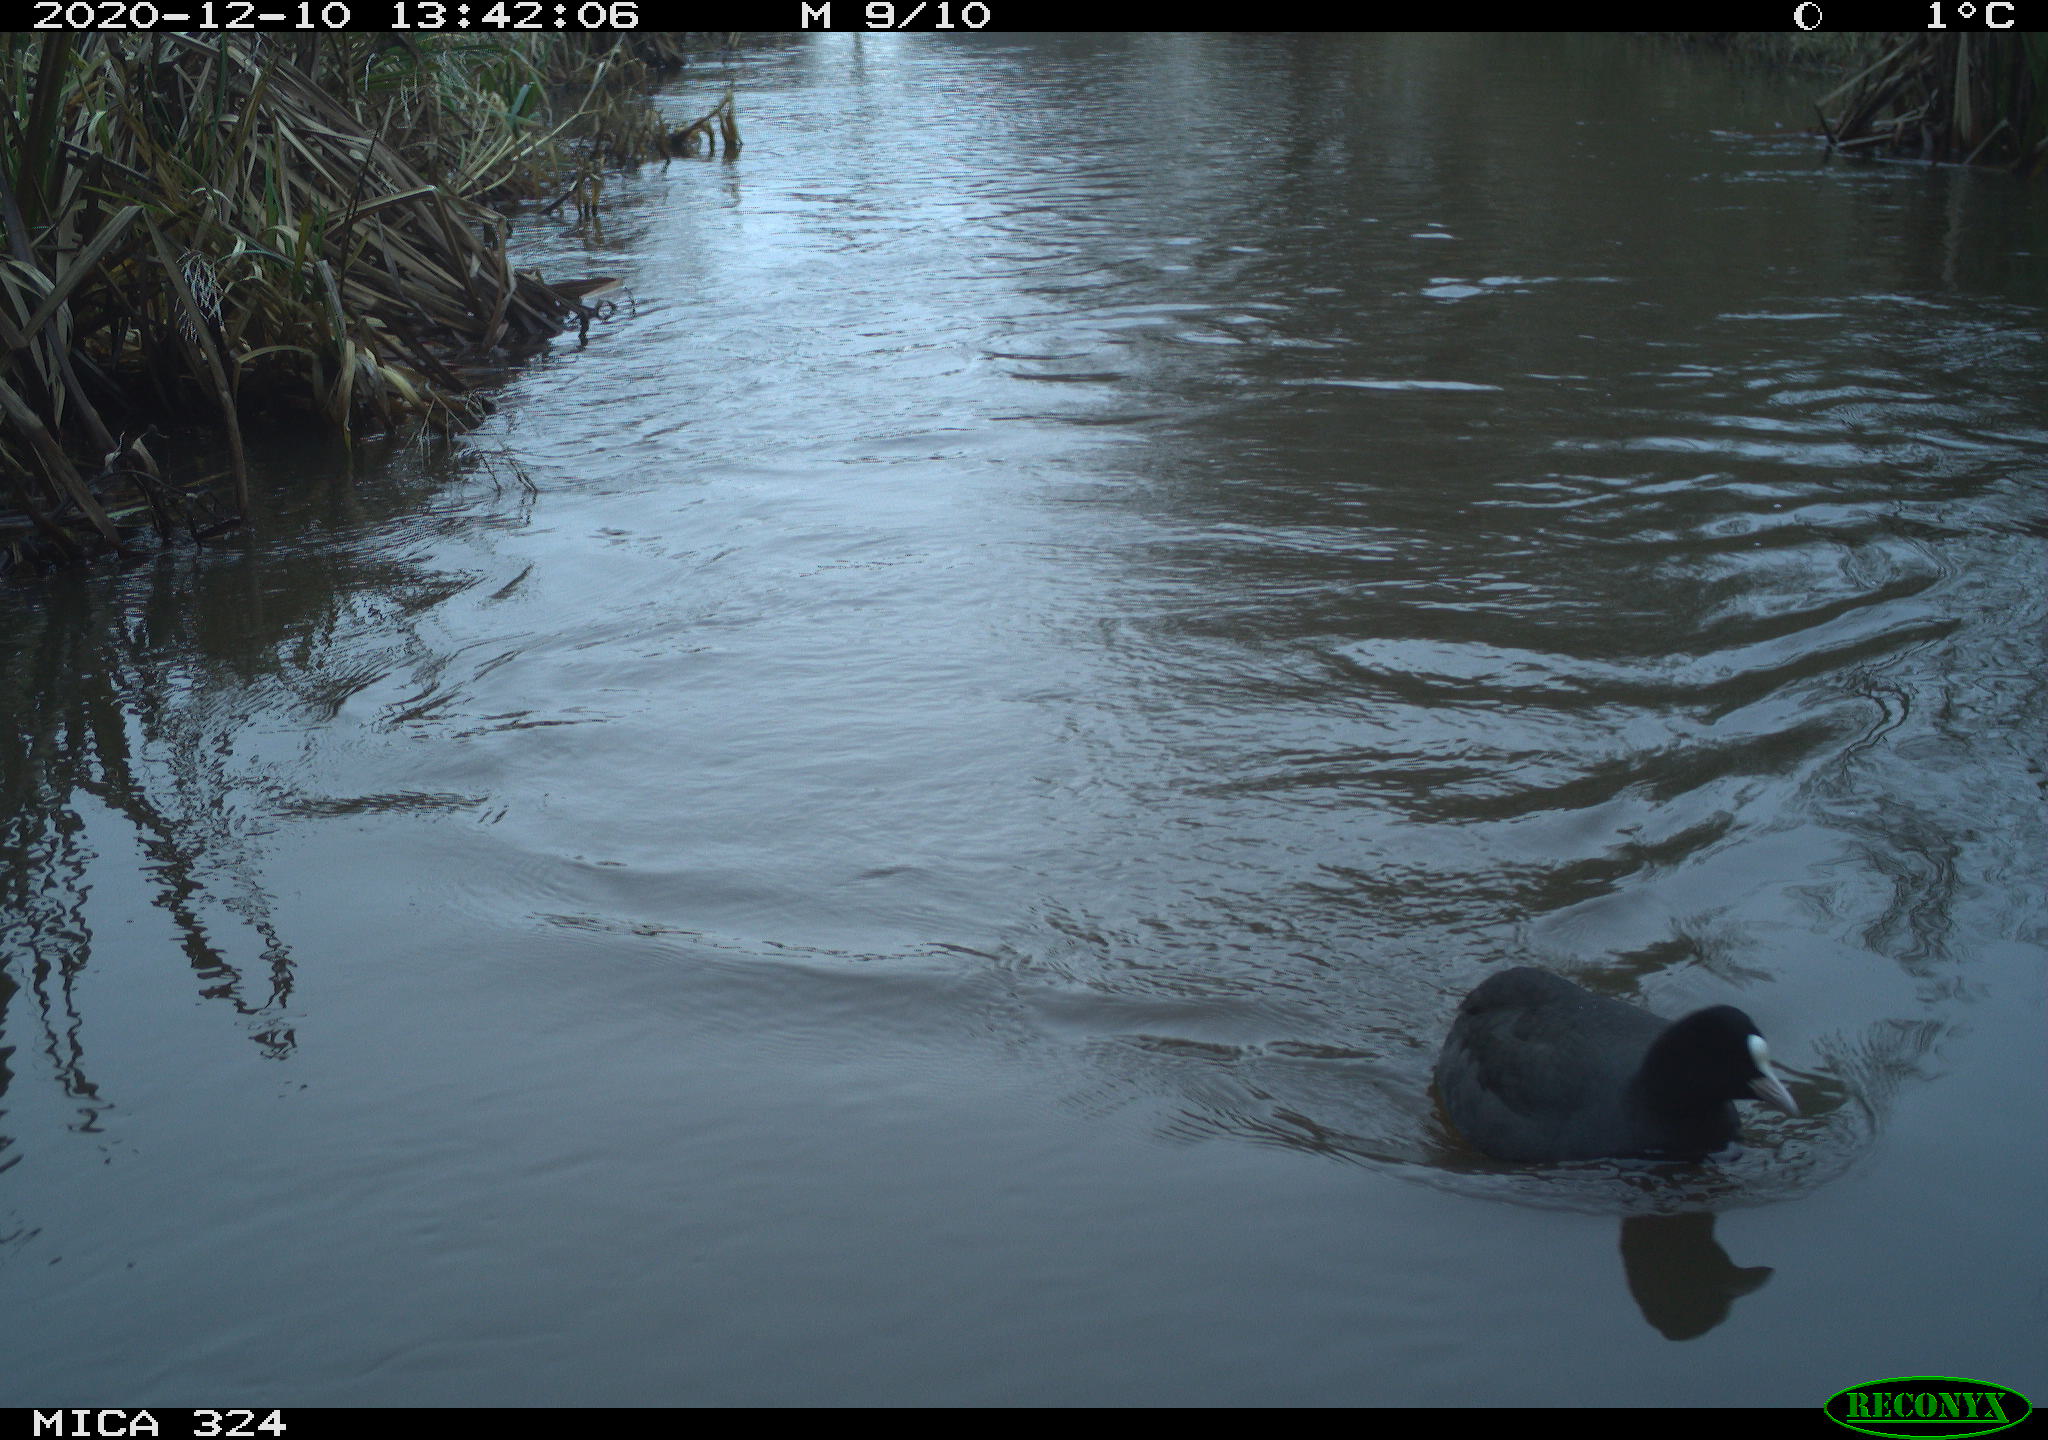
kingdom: Animalia
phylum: Chordata
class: Aves
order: Gruiformes
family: Rallidae
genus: Fulica
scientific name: Fulica atra
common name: Eurasian coot
